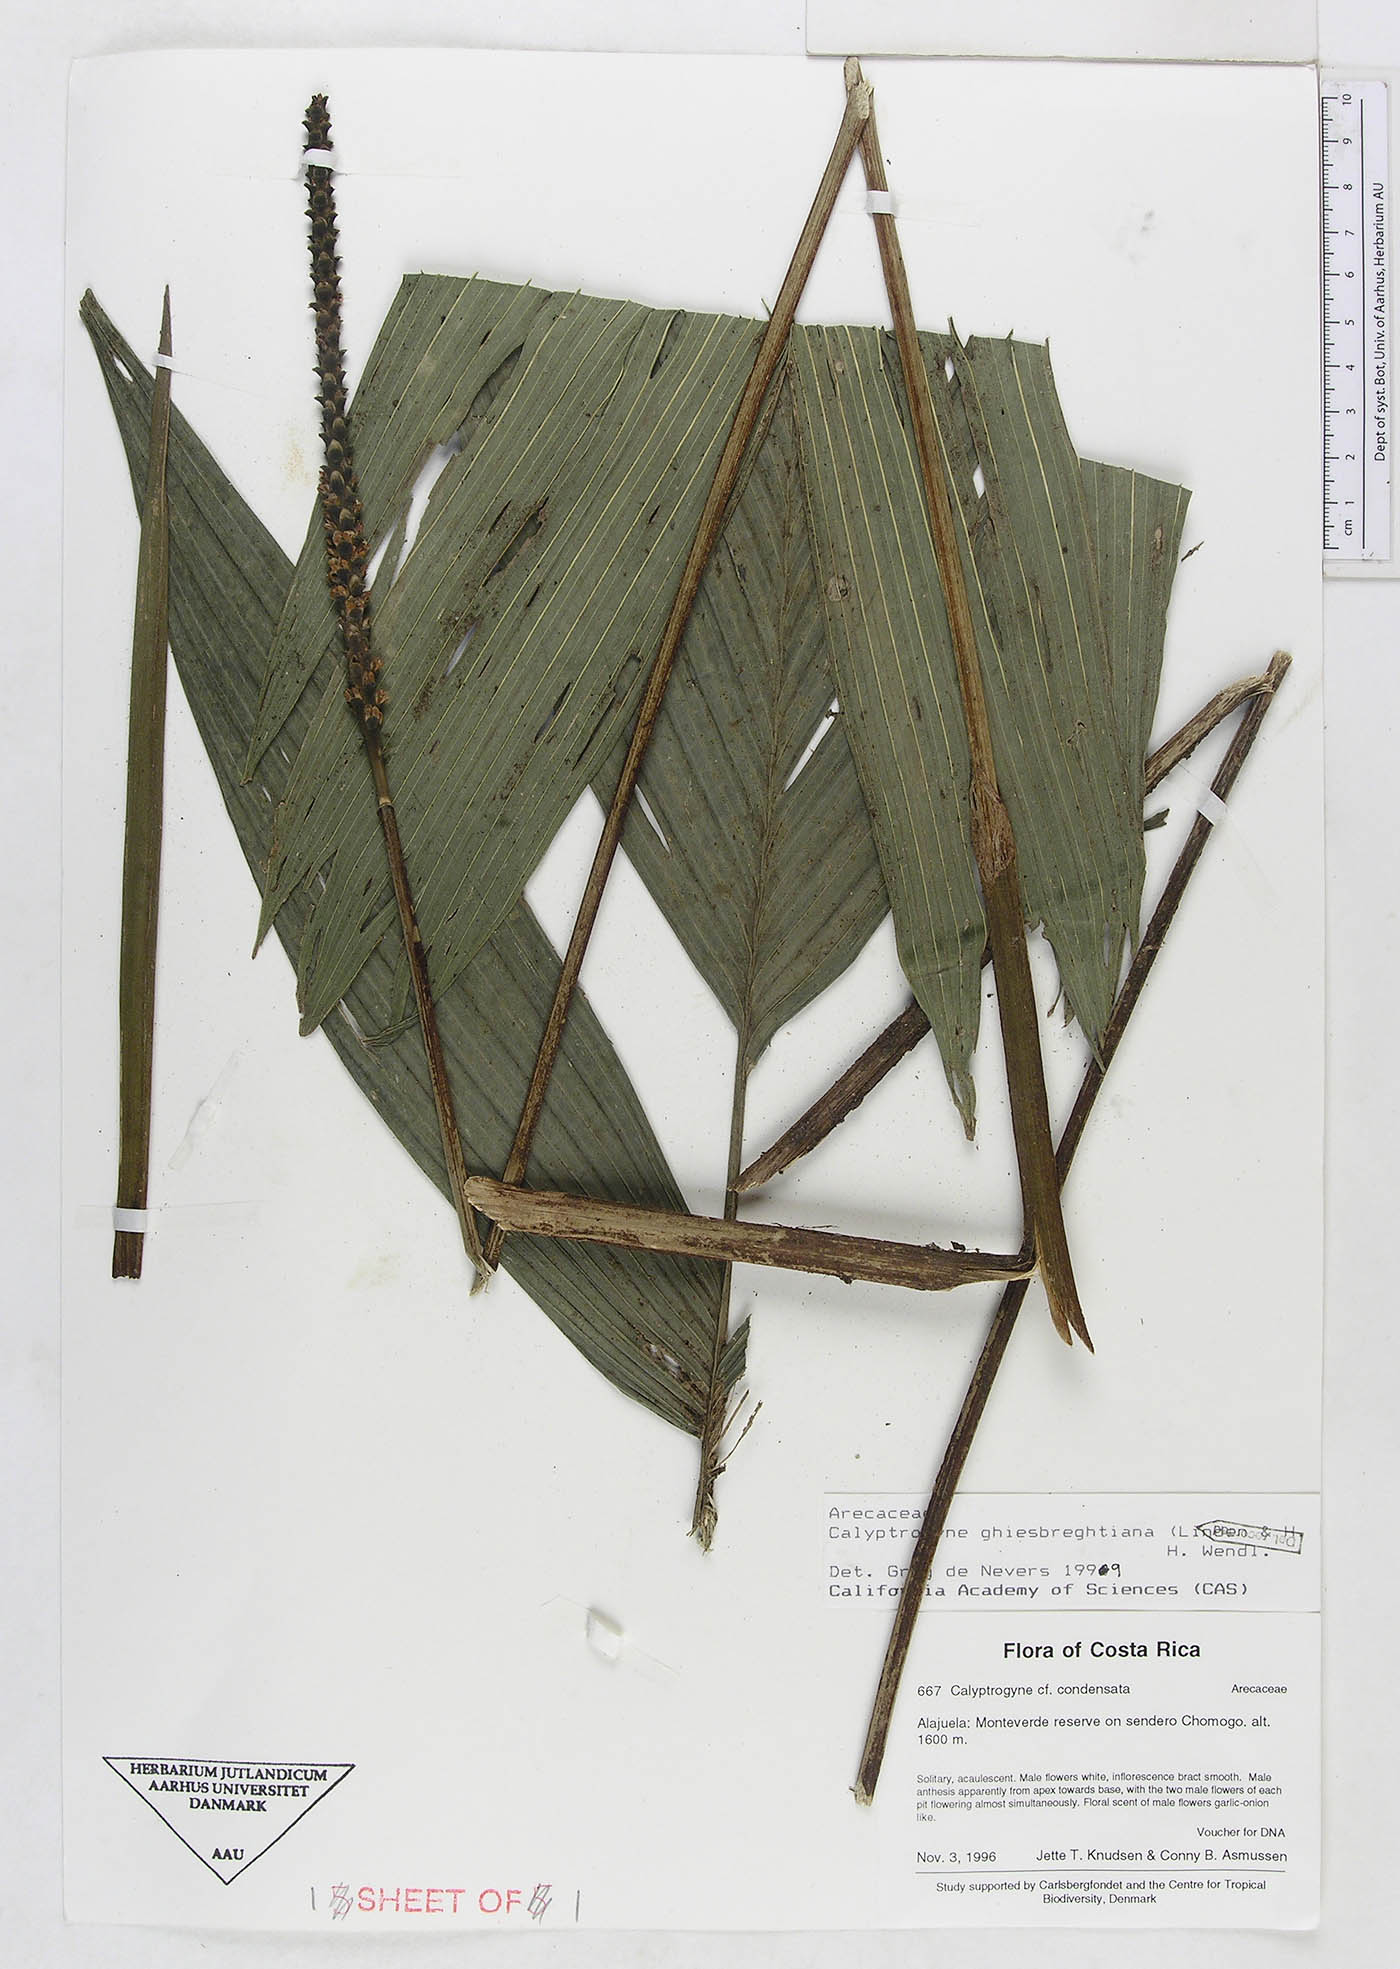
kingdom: Plantae
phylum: Tracheophyta
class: Liliopsida
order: Arecales
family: Arecaceae
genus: Calyptrogyne
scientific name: Calyptrogyne ghiesbreghtiana
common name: Coligallo
